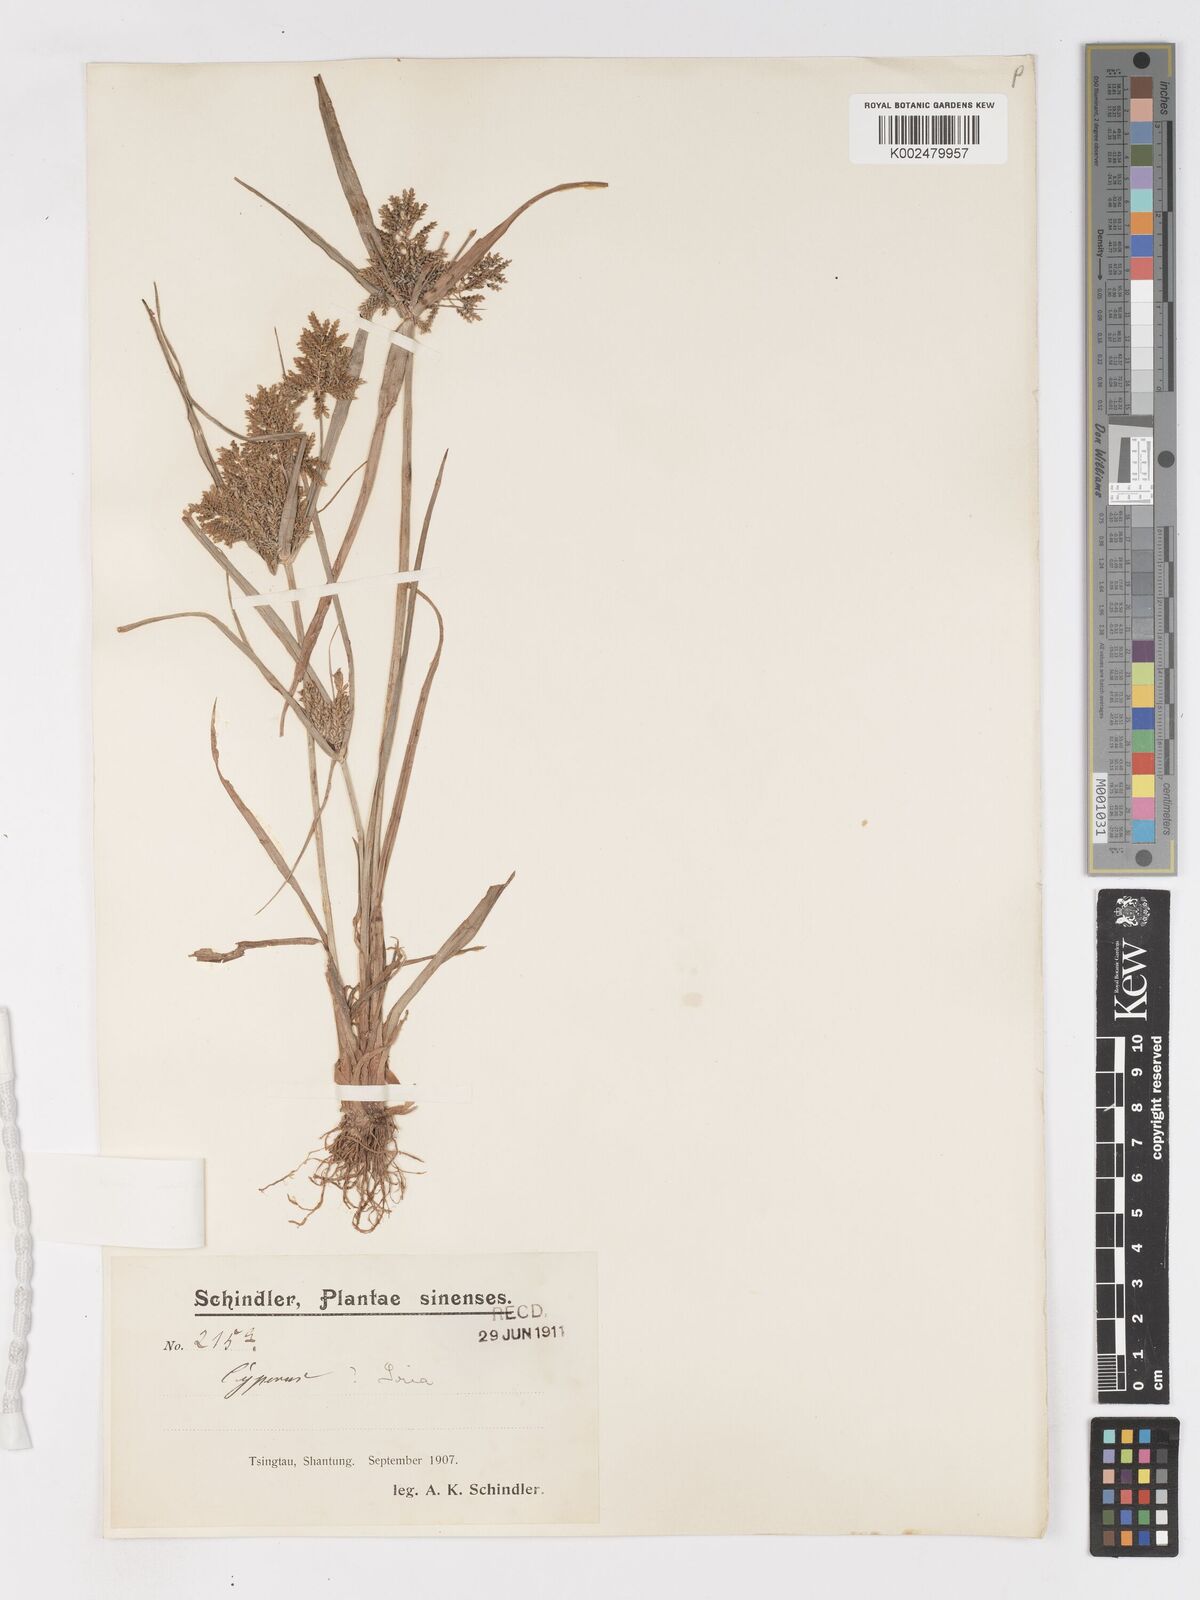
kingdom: Plantae
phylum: Tracheophyta
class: Liliopsida
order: Poales
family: Cyperaceae
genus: Cyperus
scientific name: Cyperus microiria
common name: Asian flatsedge
